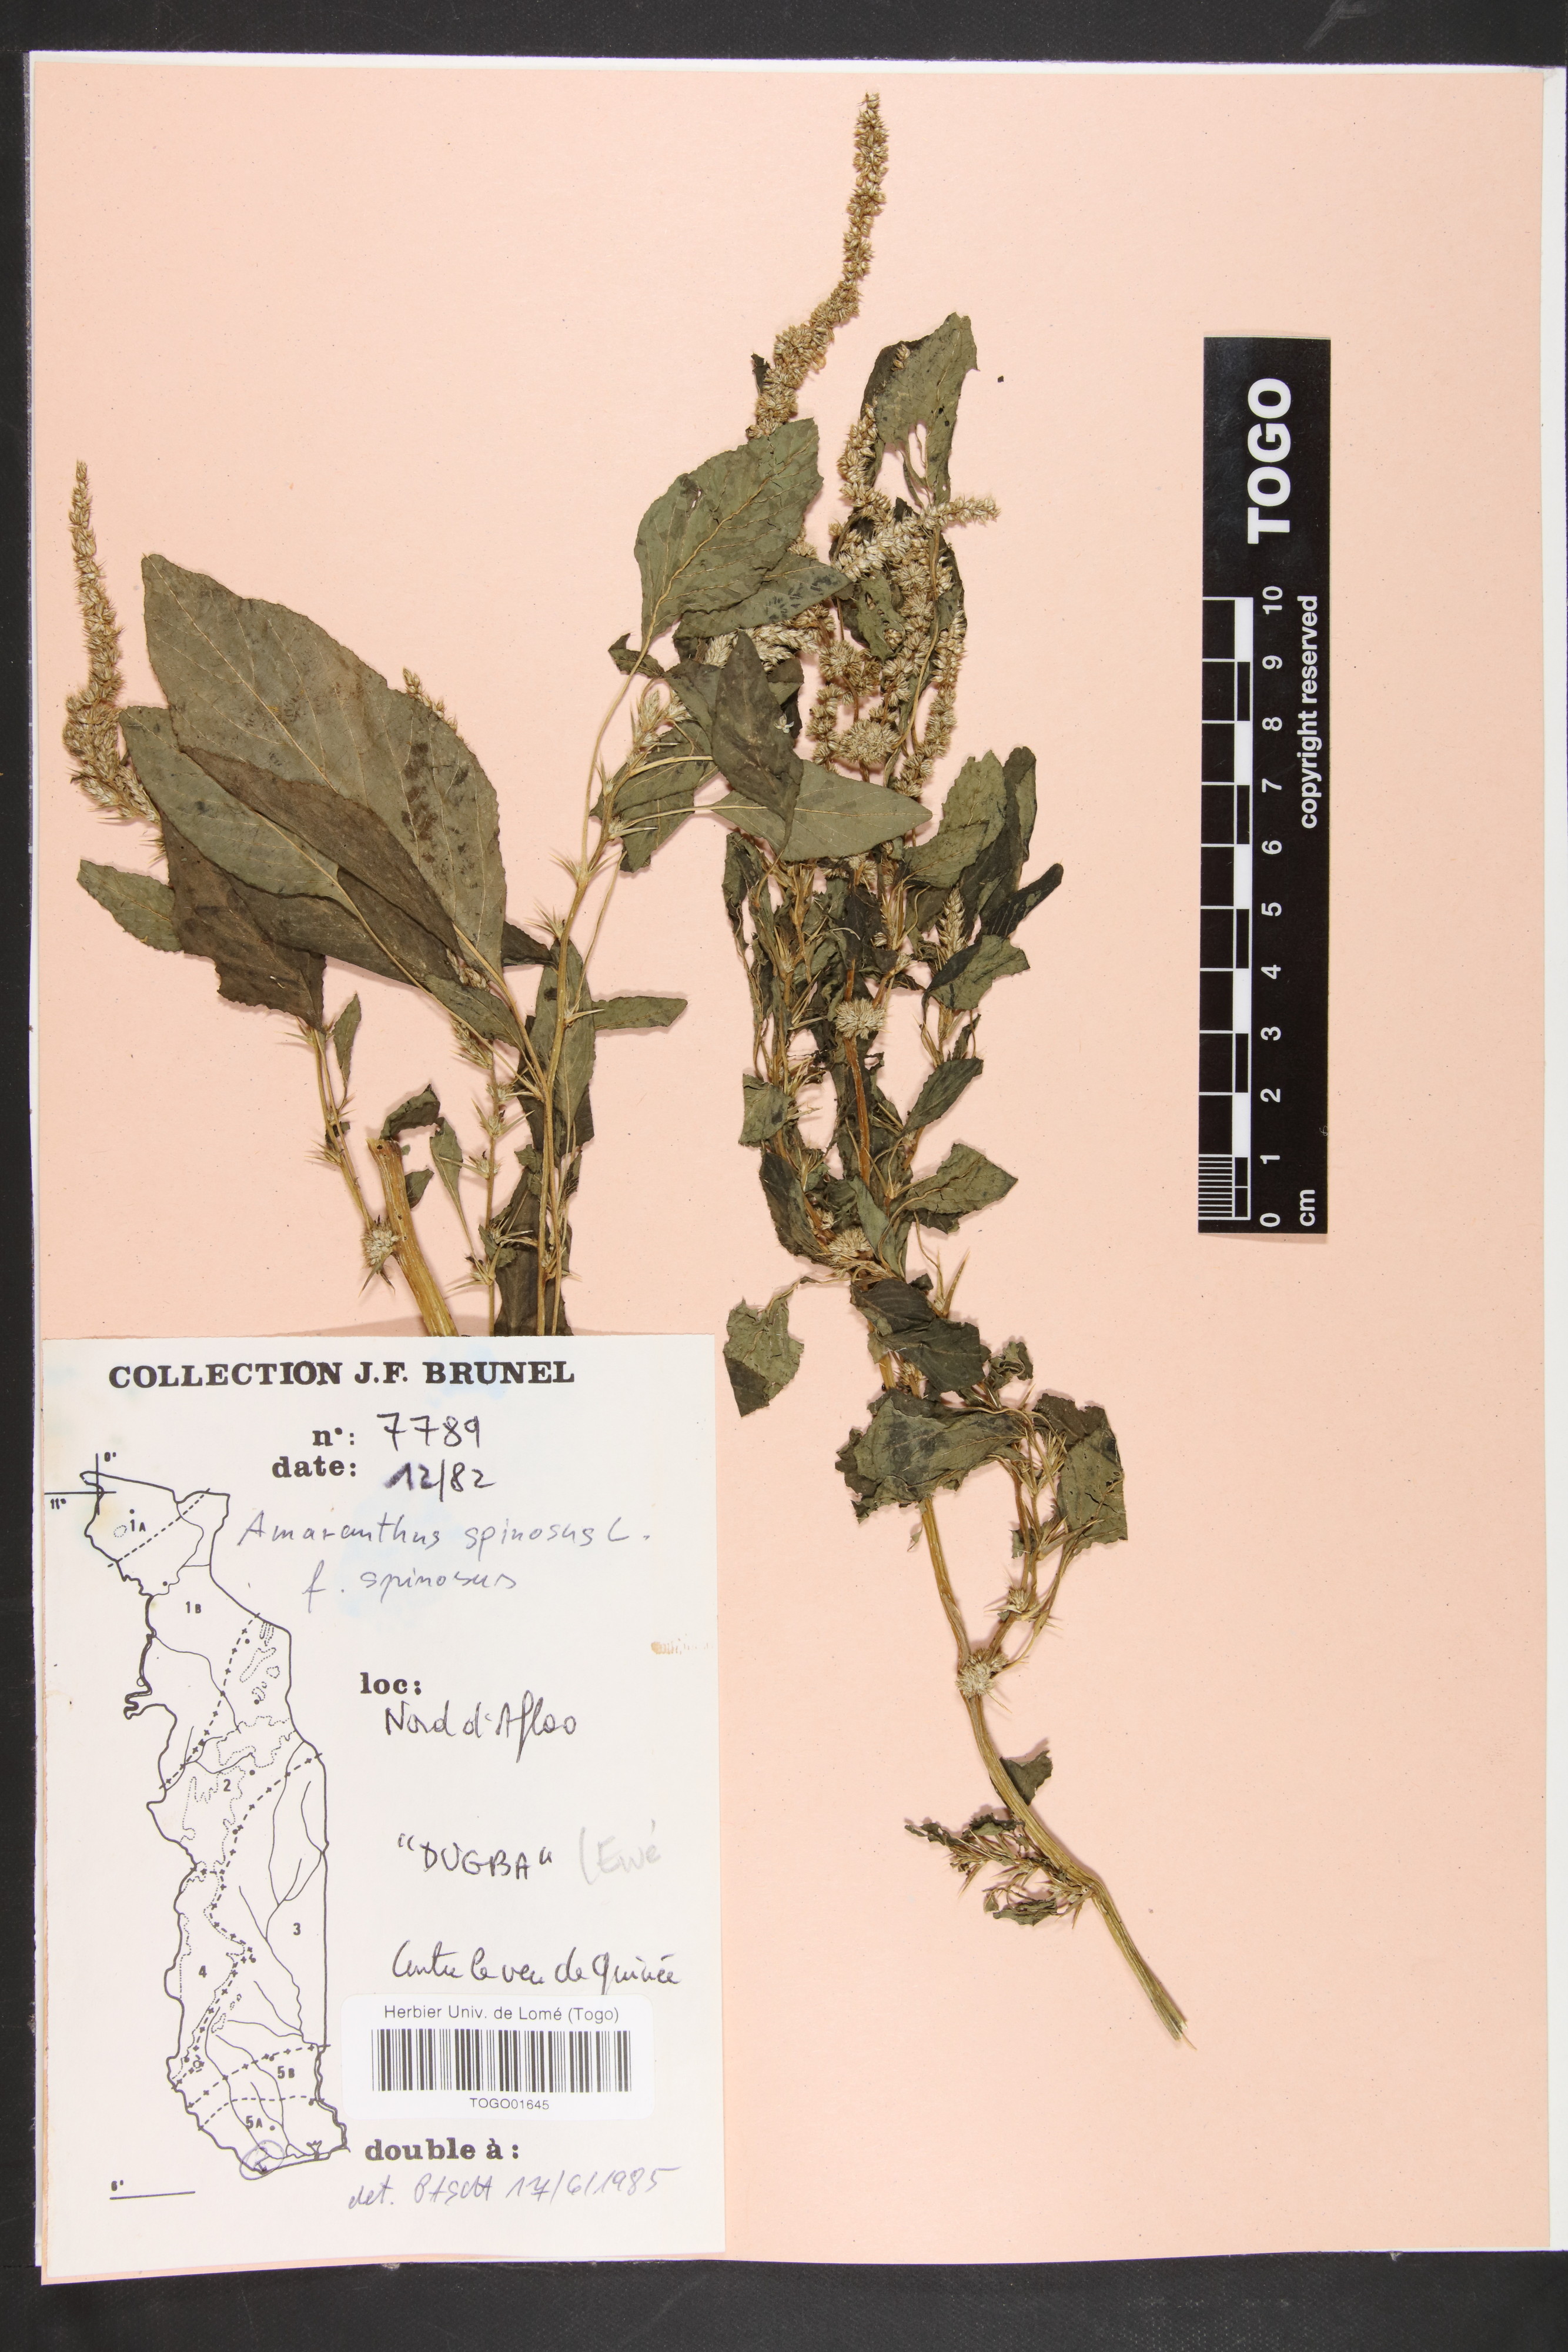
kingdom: Plantae
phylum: Tracheophyta
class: Magnoliopsida
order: Caryophyllales
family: Amaranthaceae
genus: Amaranthus
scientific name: Amaranthus spinosus
